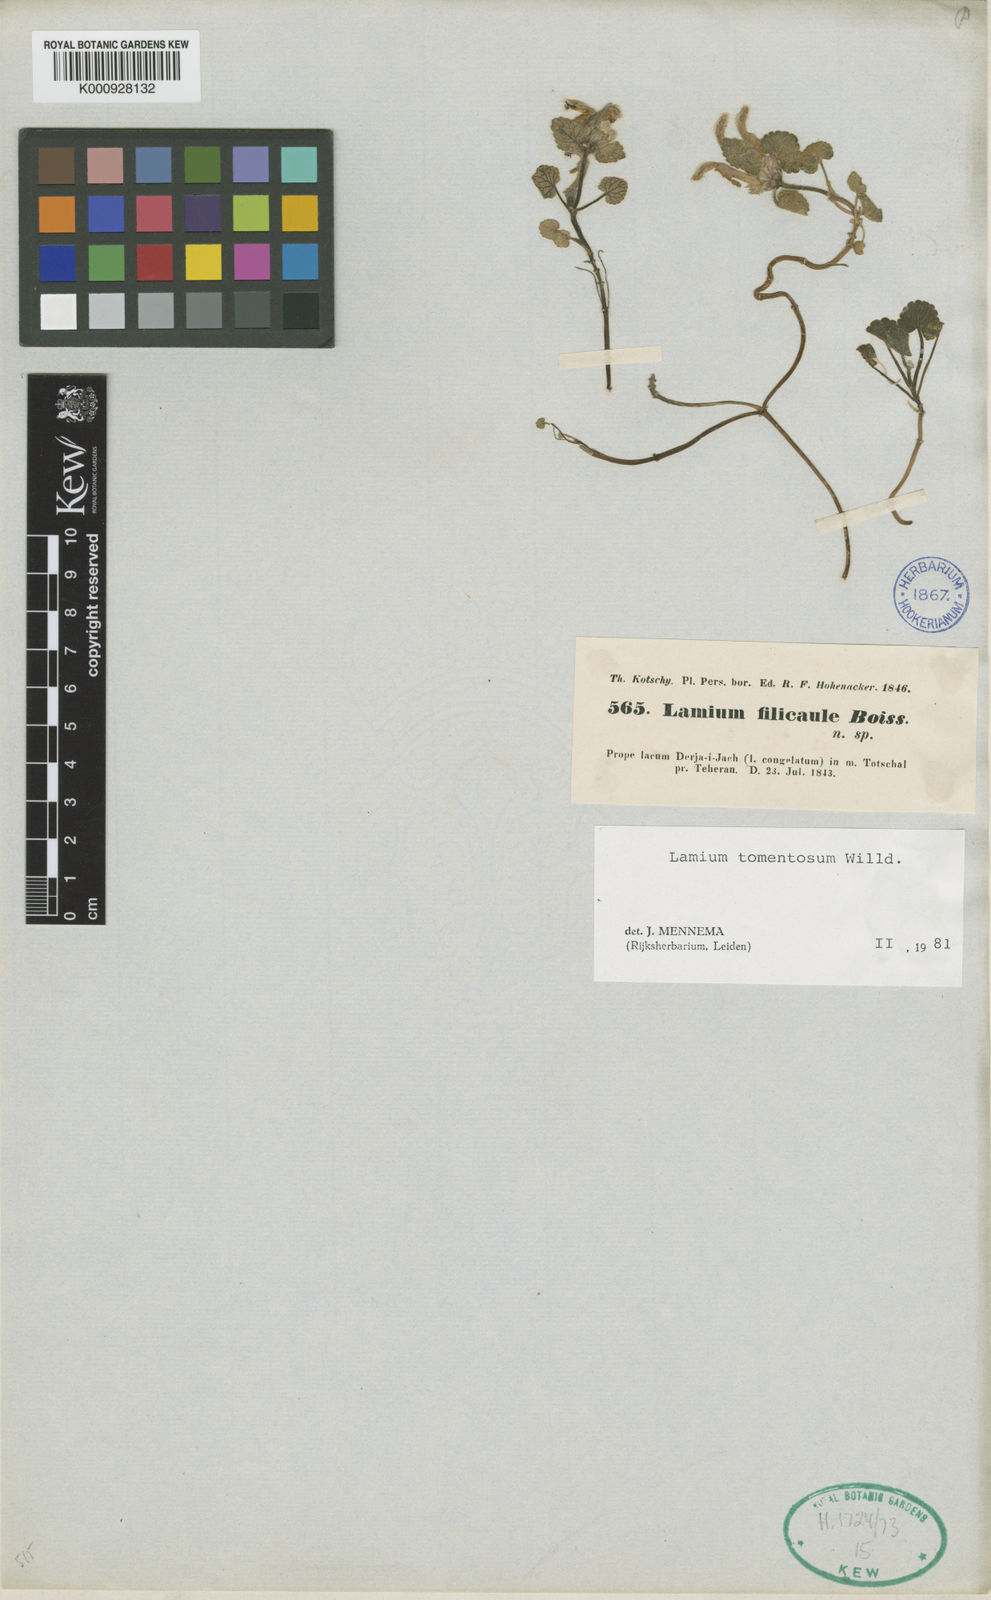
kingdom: Plantae
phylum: Tracheophyta
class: Magnoliopsida
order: Lamiales
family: Lamiaceae
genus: Lamium
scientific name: Lamium tomentosum
